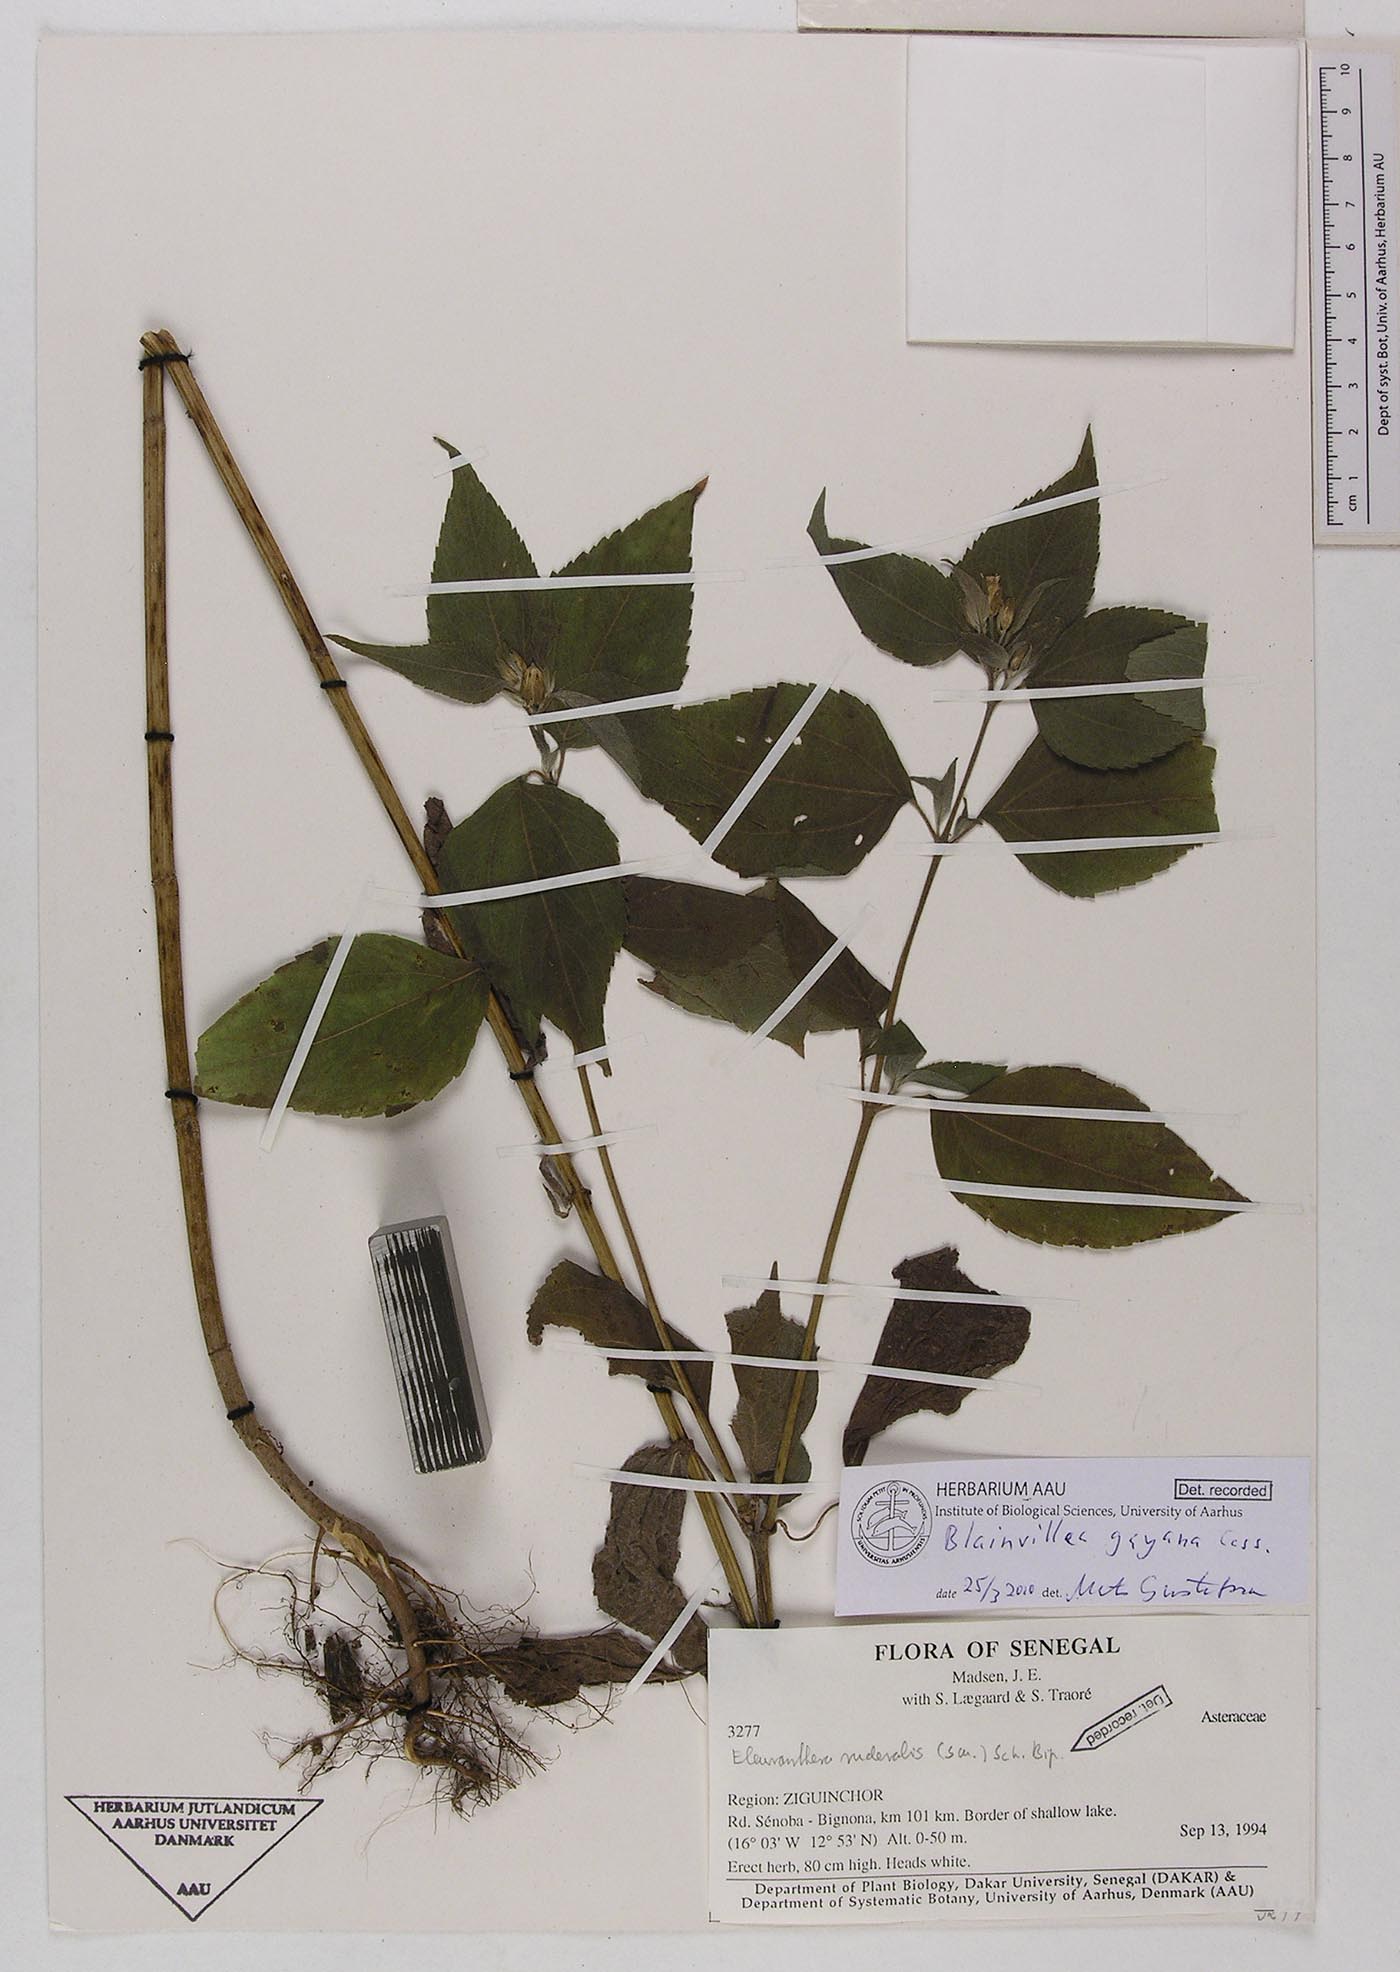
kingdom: Plantae
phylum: Tracheophyta
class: Magnoliopsida
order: Asterales
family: Asteraceae
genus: Blainvillea
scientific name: Blainvillea gayana
